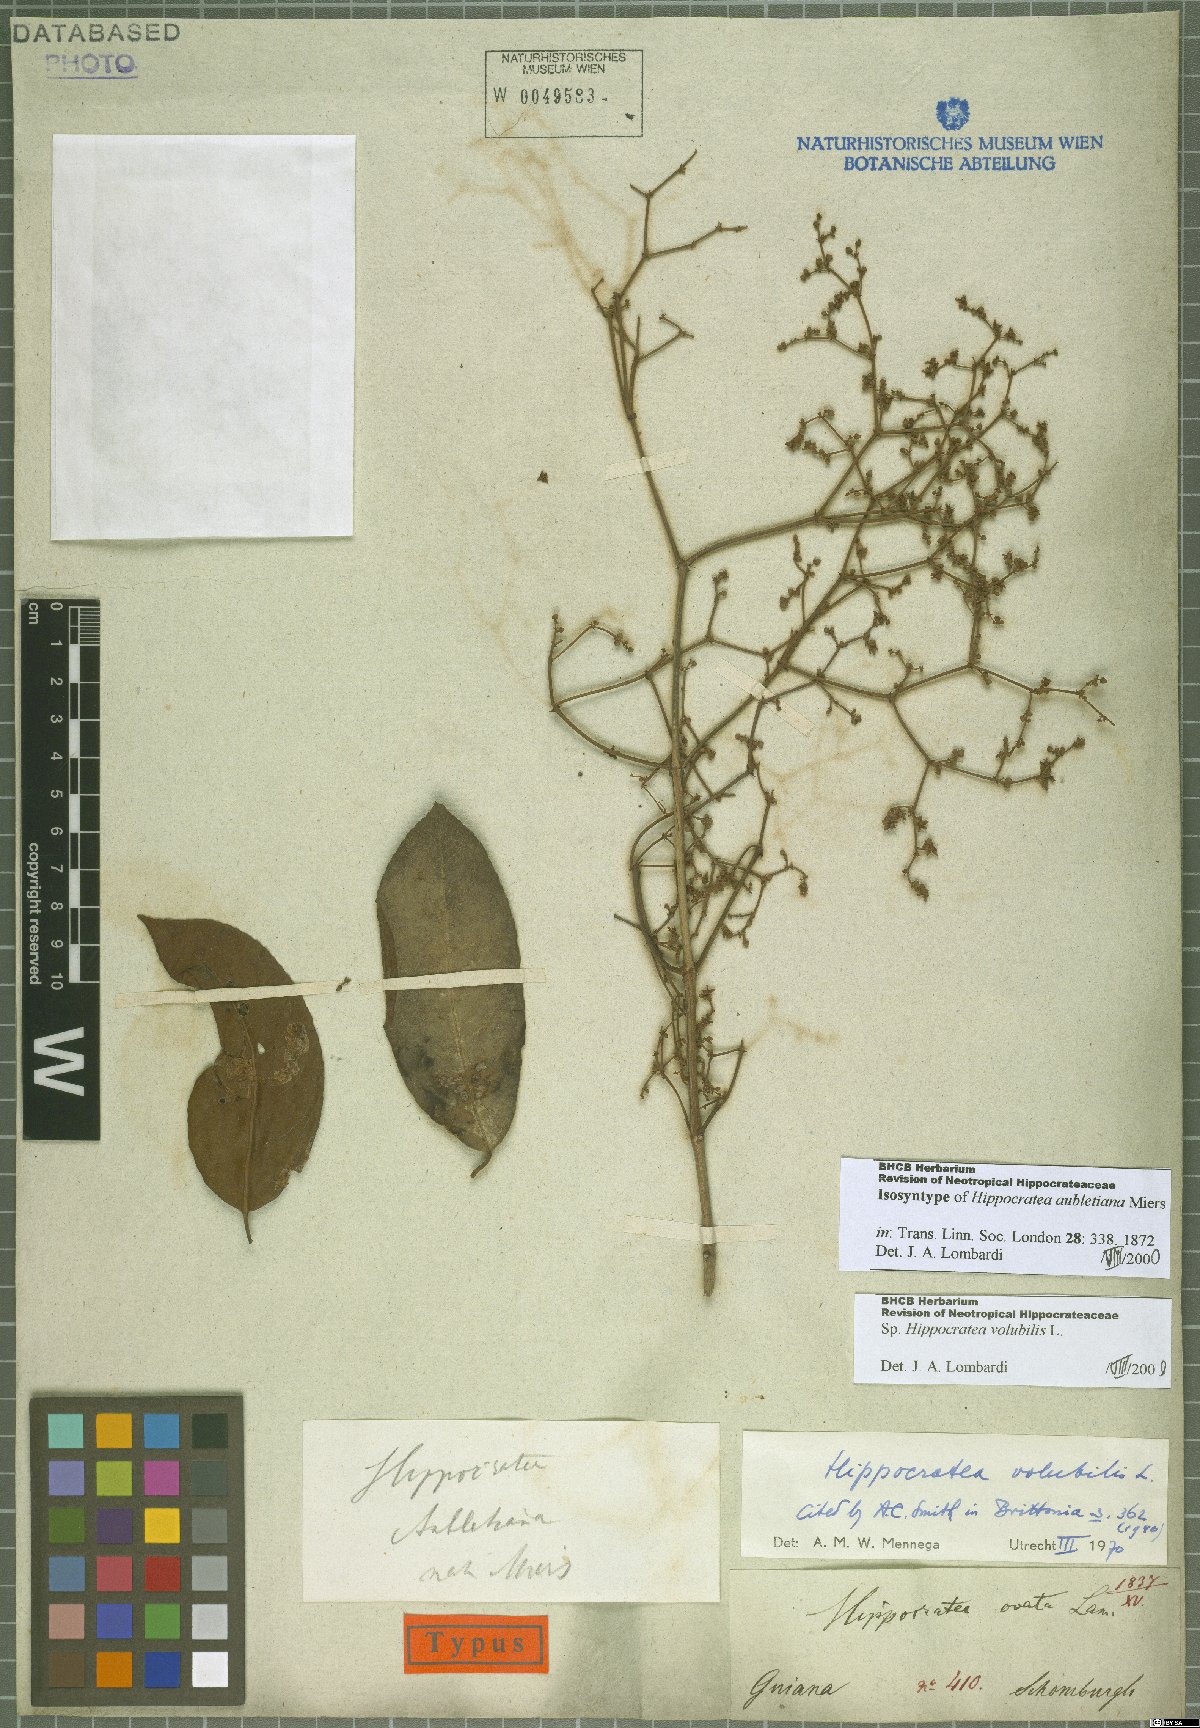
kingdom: Plantae
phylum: Tracheophyta
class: Magnoliopsida
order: Celastrales
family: Celastraceae
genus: Hippocratea
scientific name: Hippocratea volubilis
